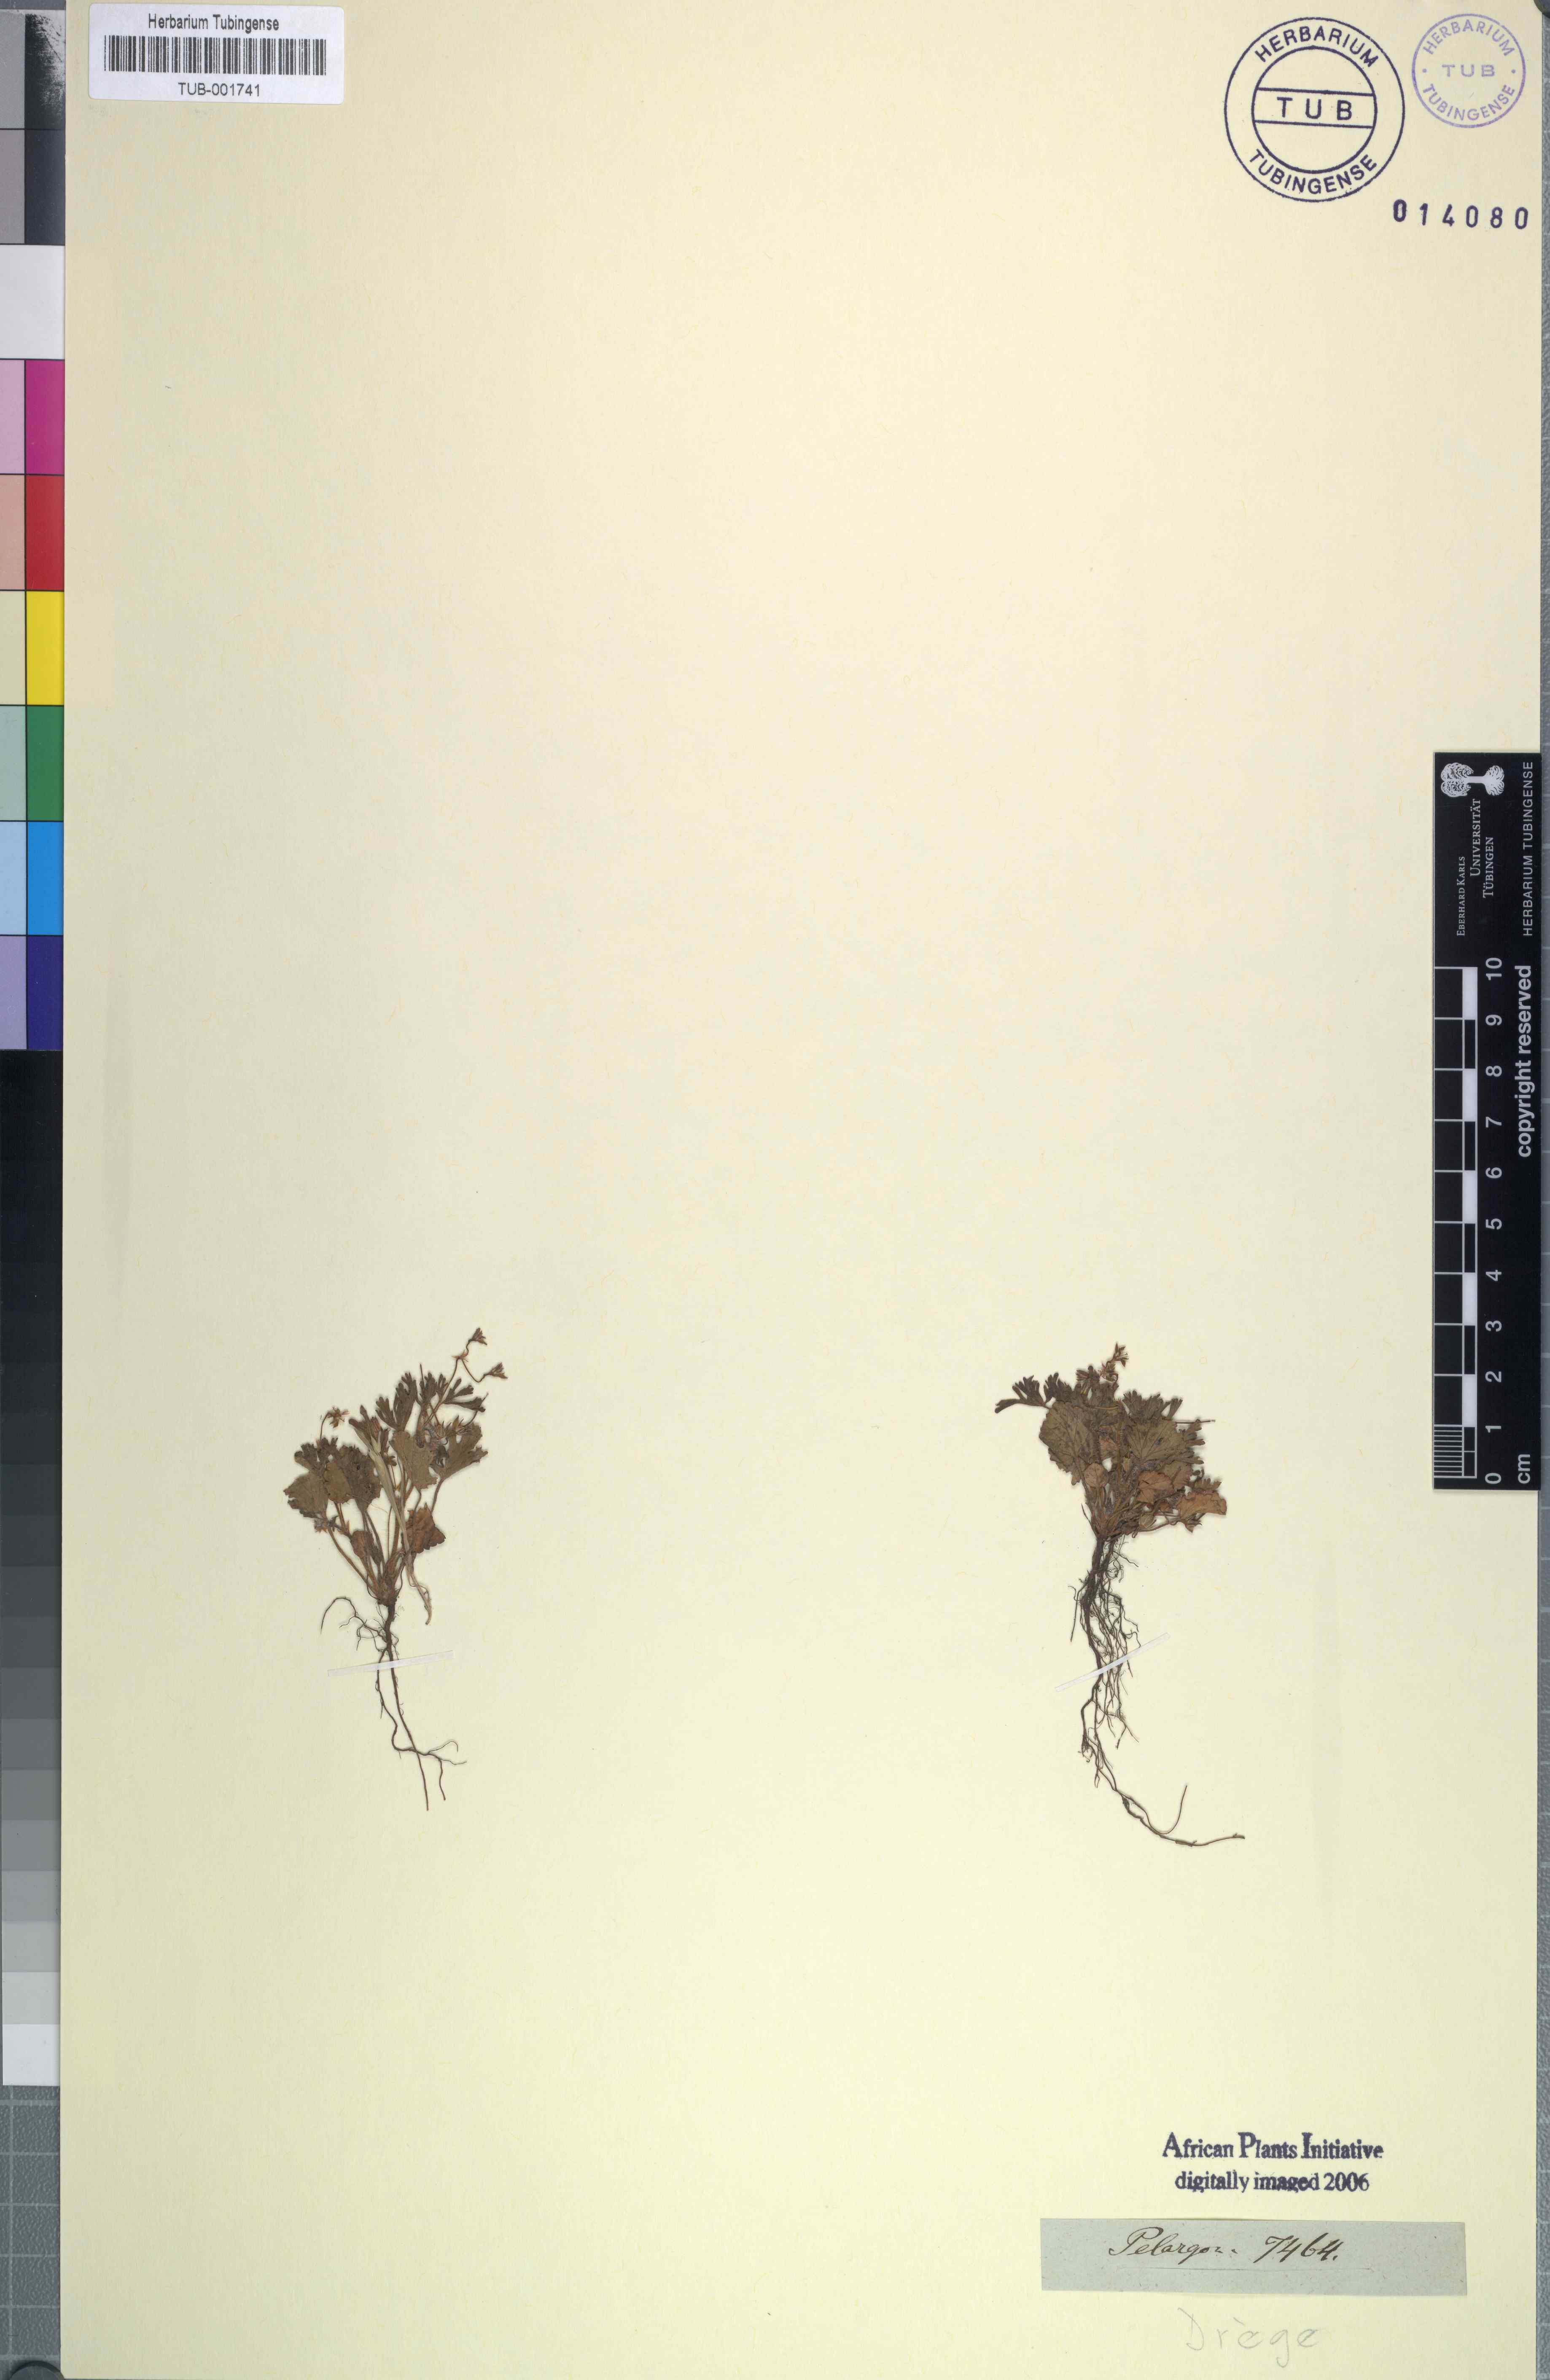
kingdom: Plantae
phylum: Tracheophyta
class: Magnoliopsida
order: Geraniales
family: Geraniaceae
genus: Pelargonium
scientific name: Pelargonium
